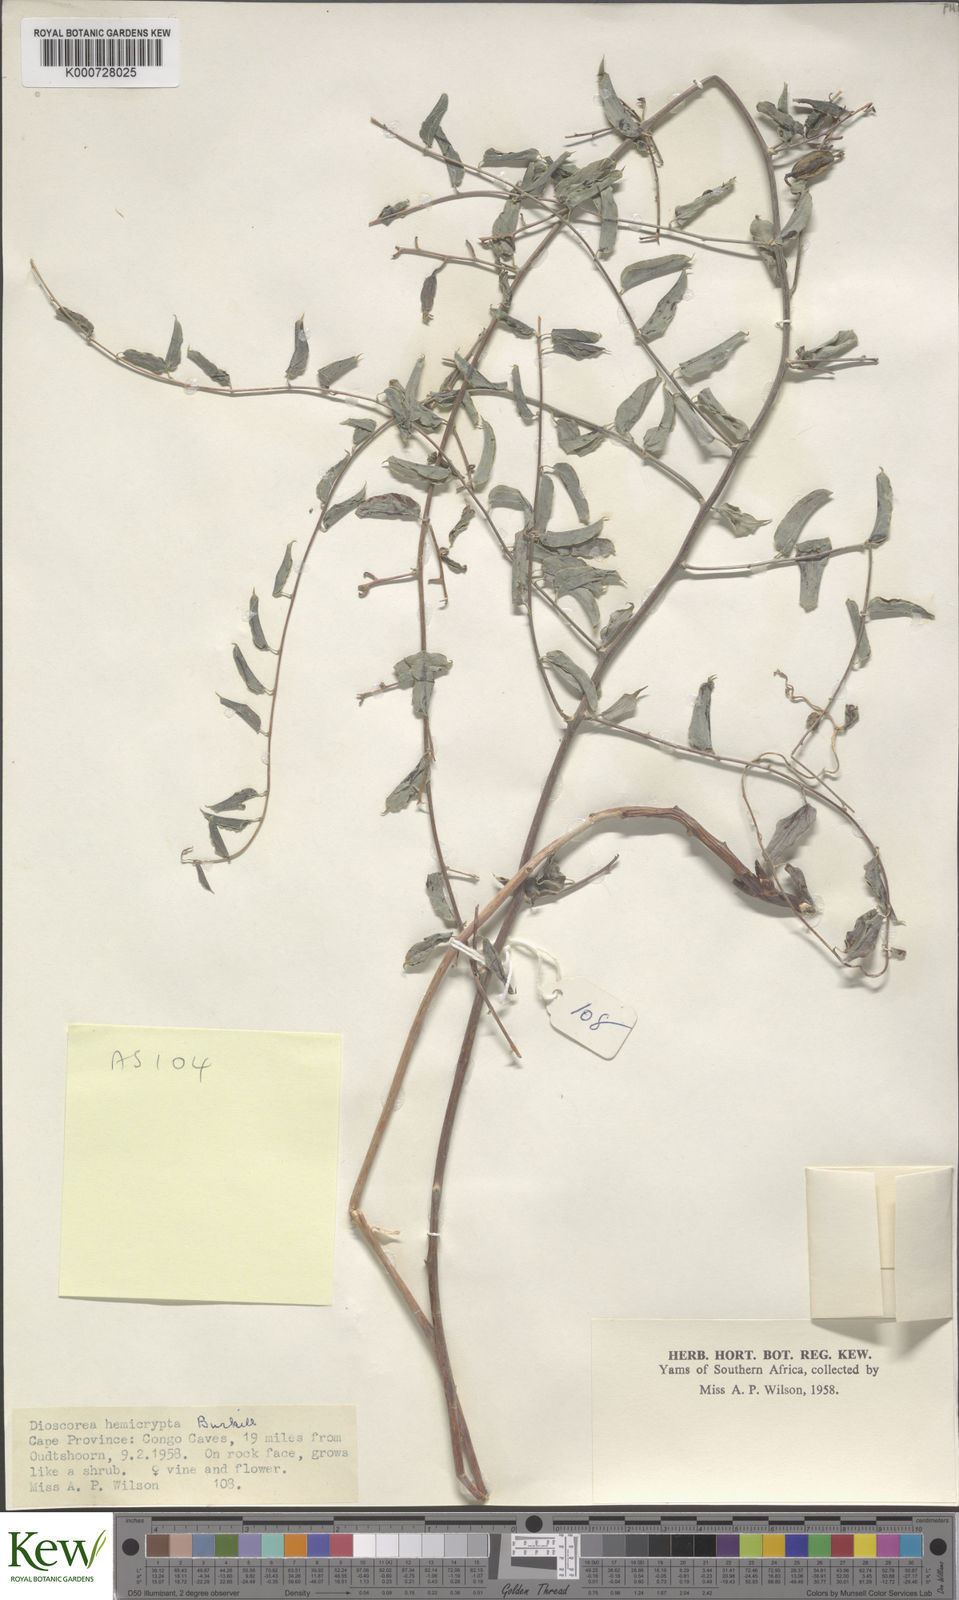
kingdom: Plantae
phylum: Tracheophyta
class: Liliopsida
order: Dioscoreales
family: Dioscoreaceae
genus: Dioscorea
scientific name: Dioscorea hemicrypta
